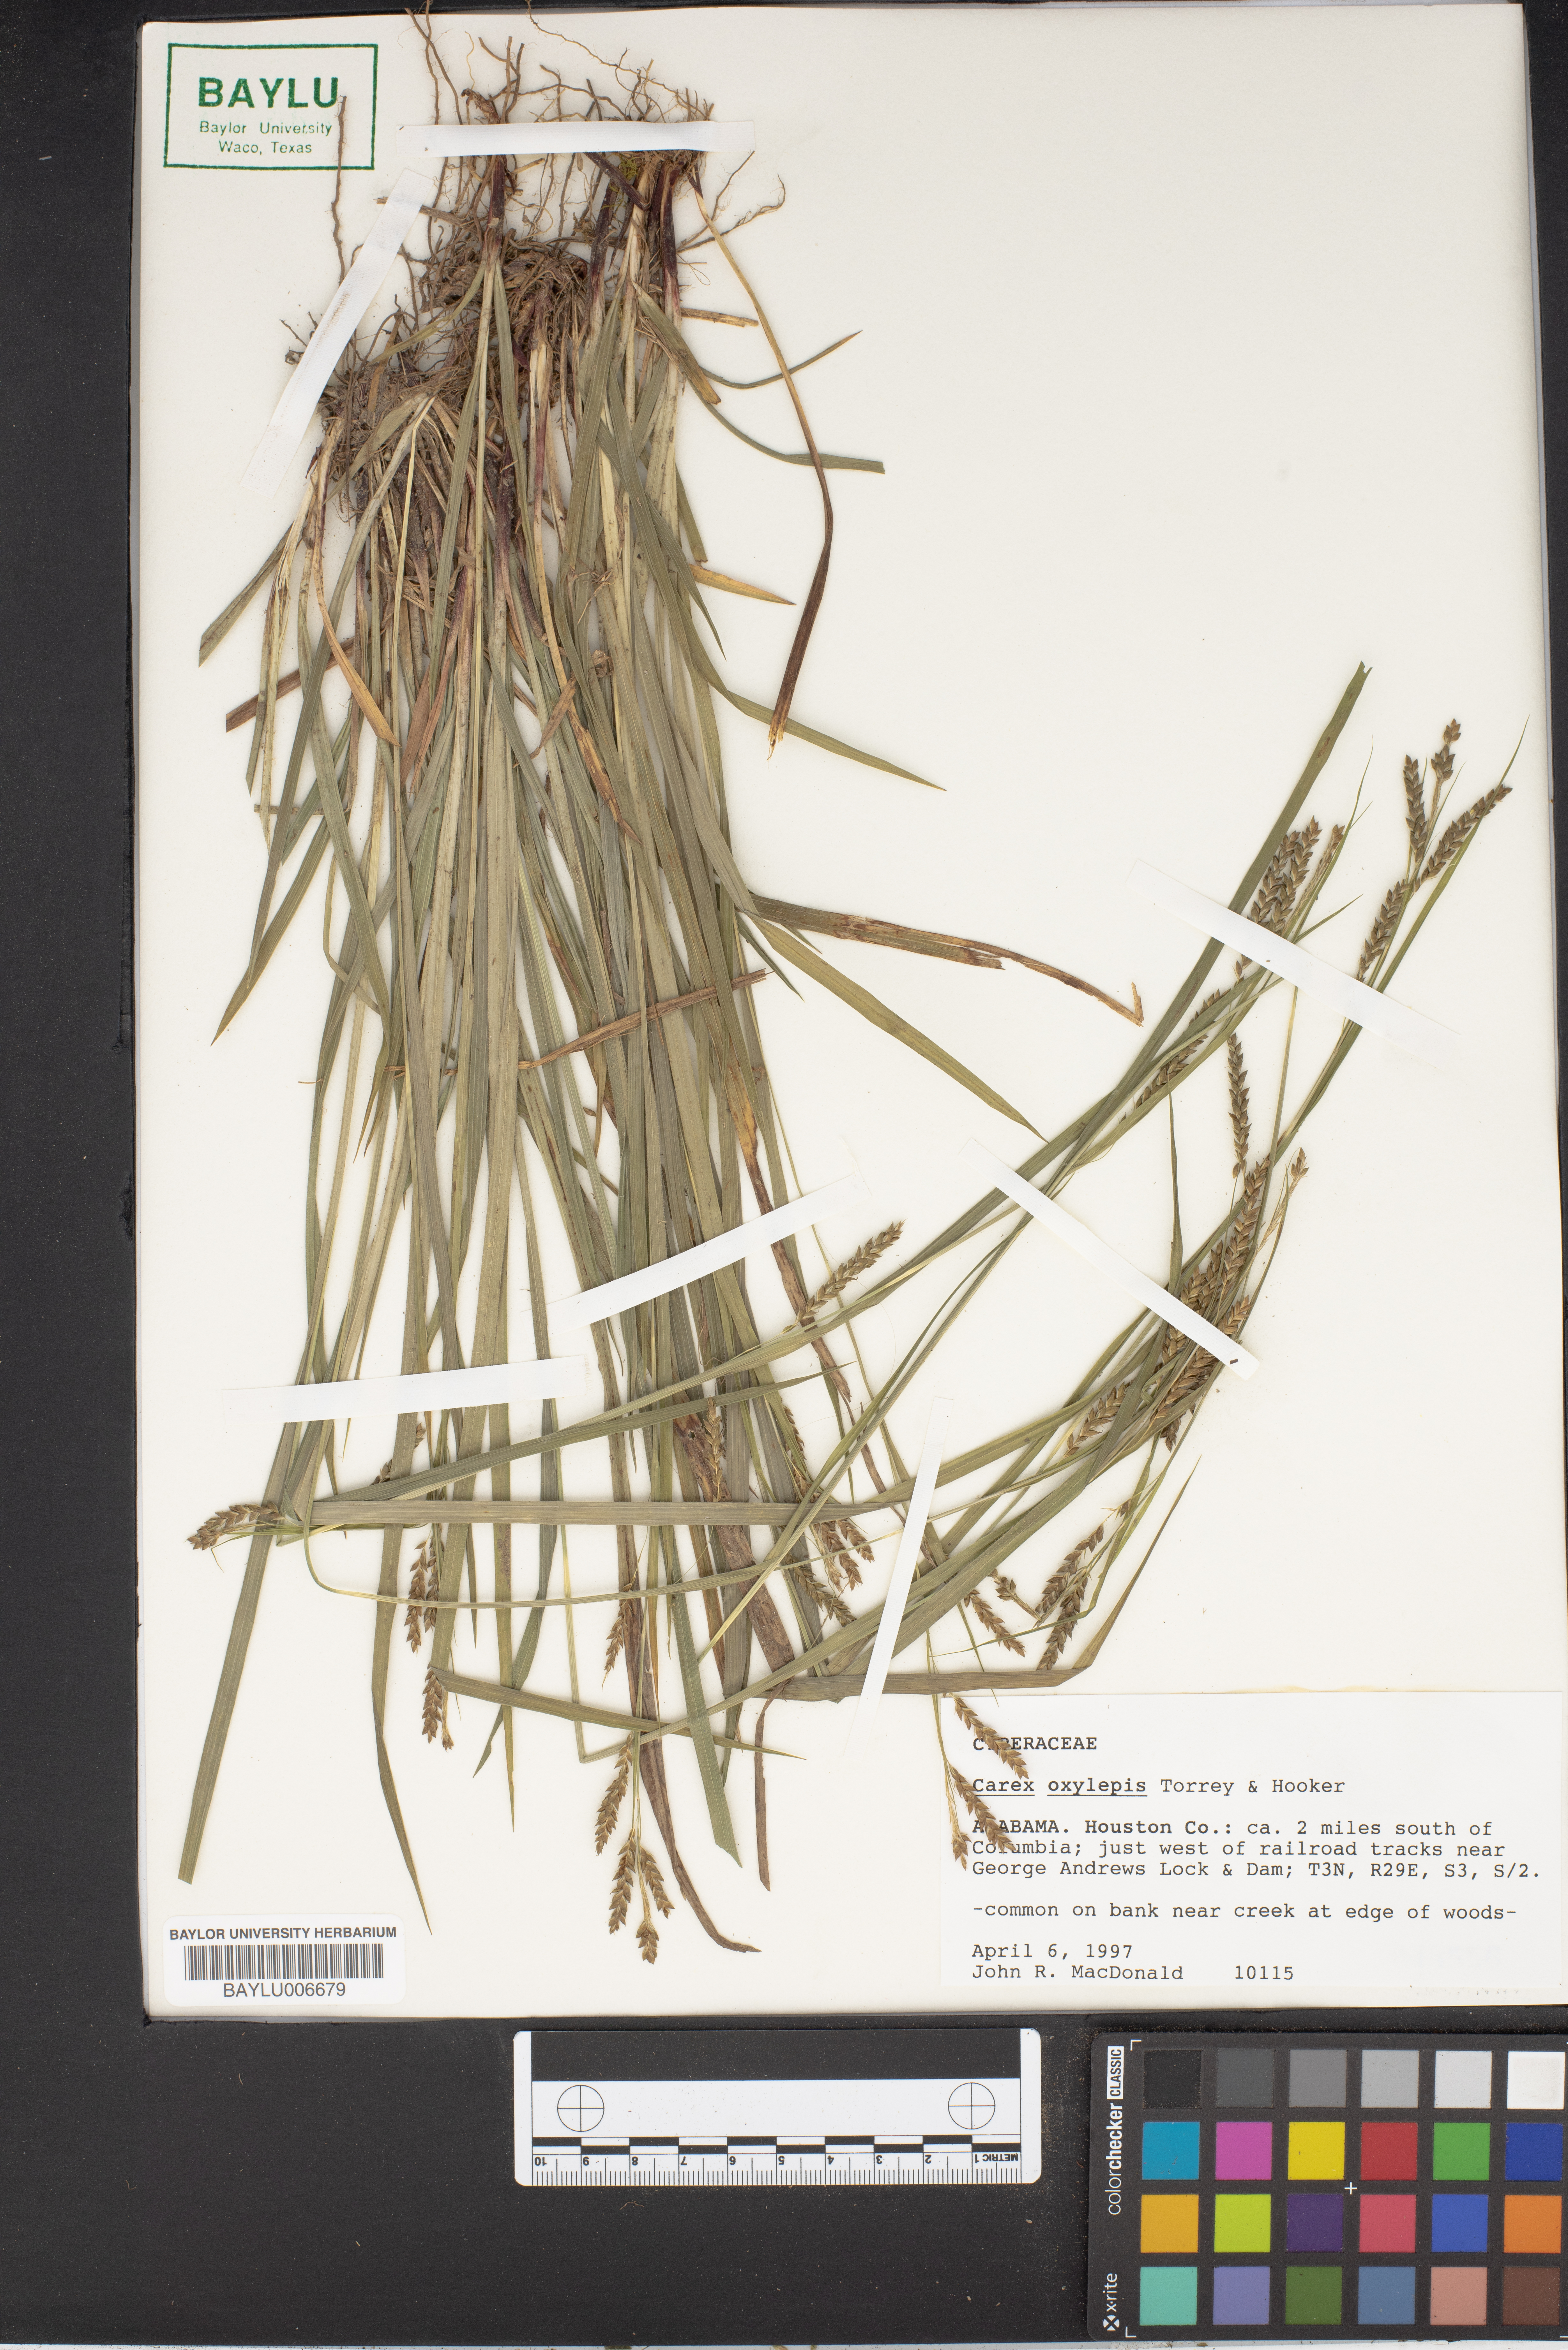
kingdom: Plantae
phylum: Tracheophyta
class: Liliopsida
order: Poales
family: Cyperaceae
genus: Carex
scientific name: Carex oxylepis
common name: Sharpscale sedge
